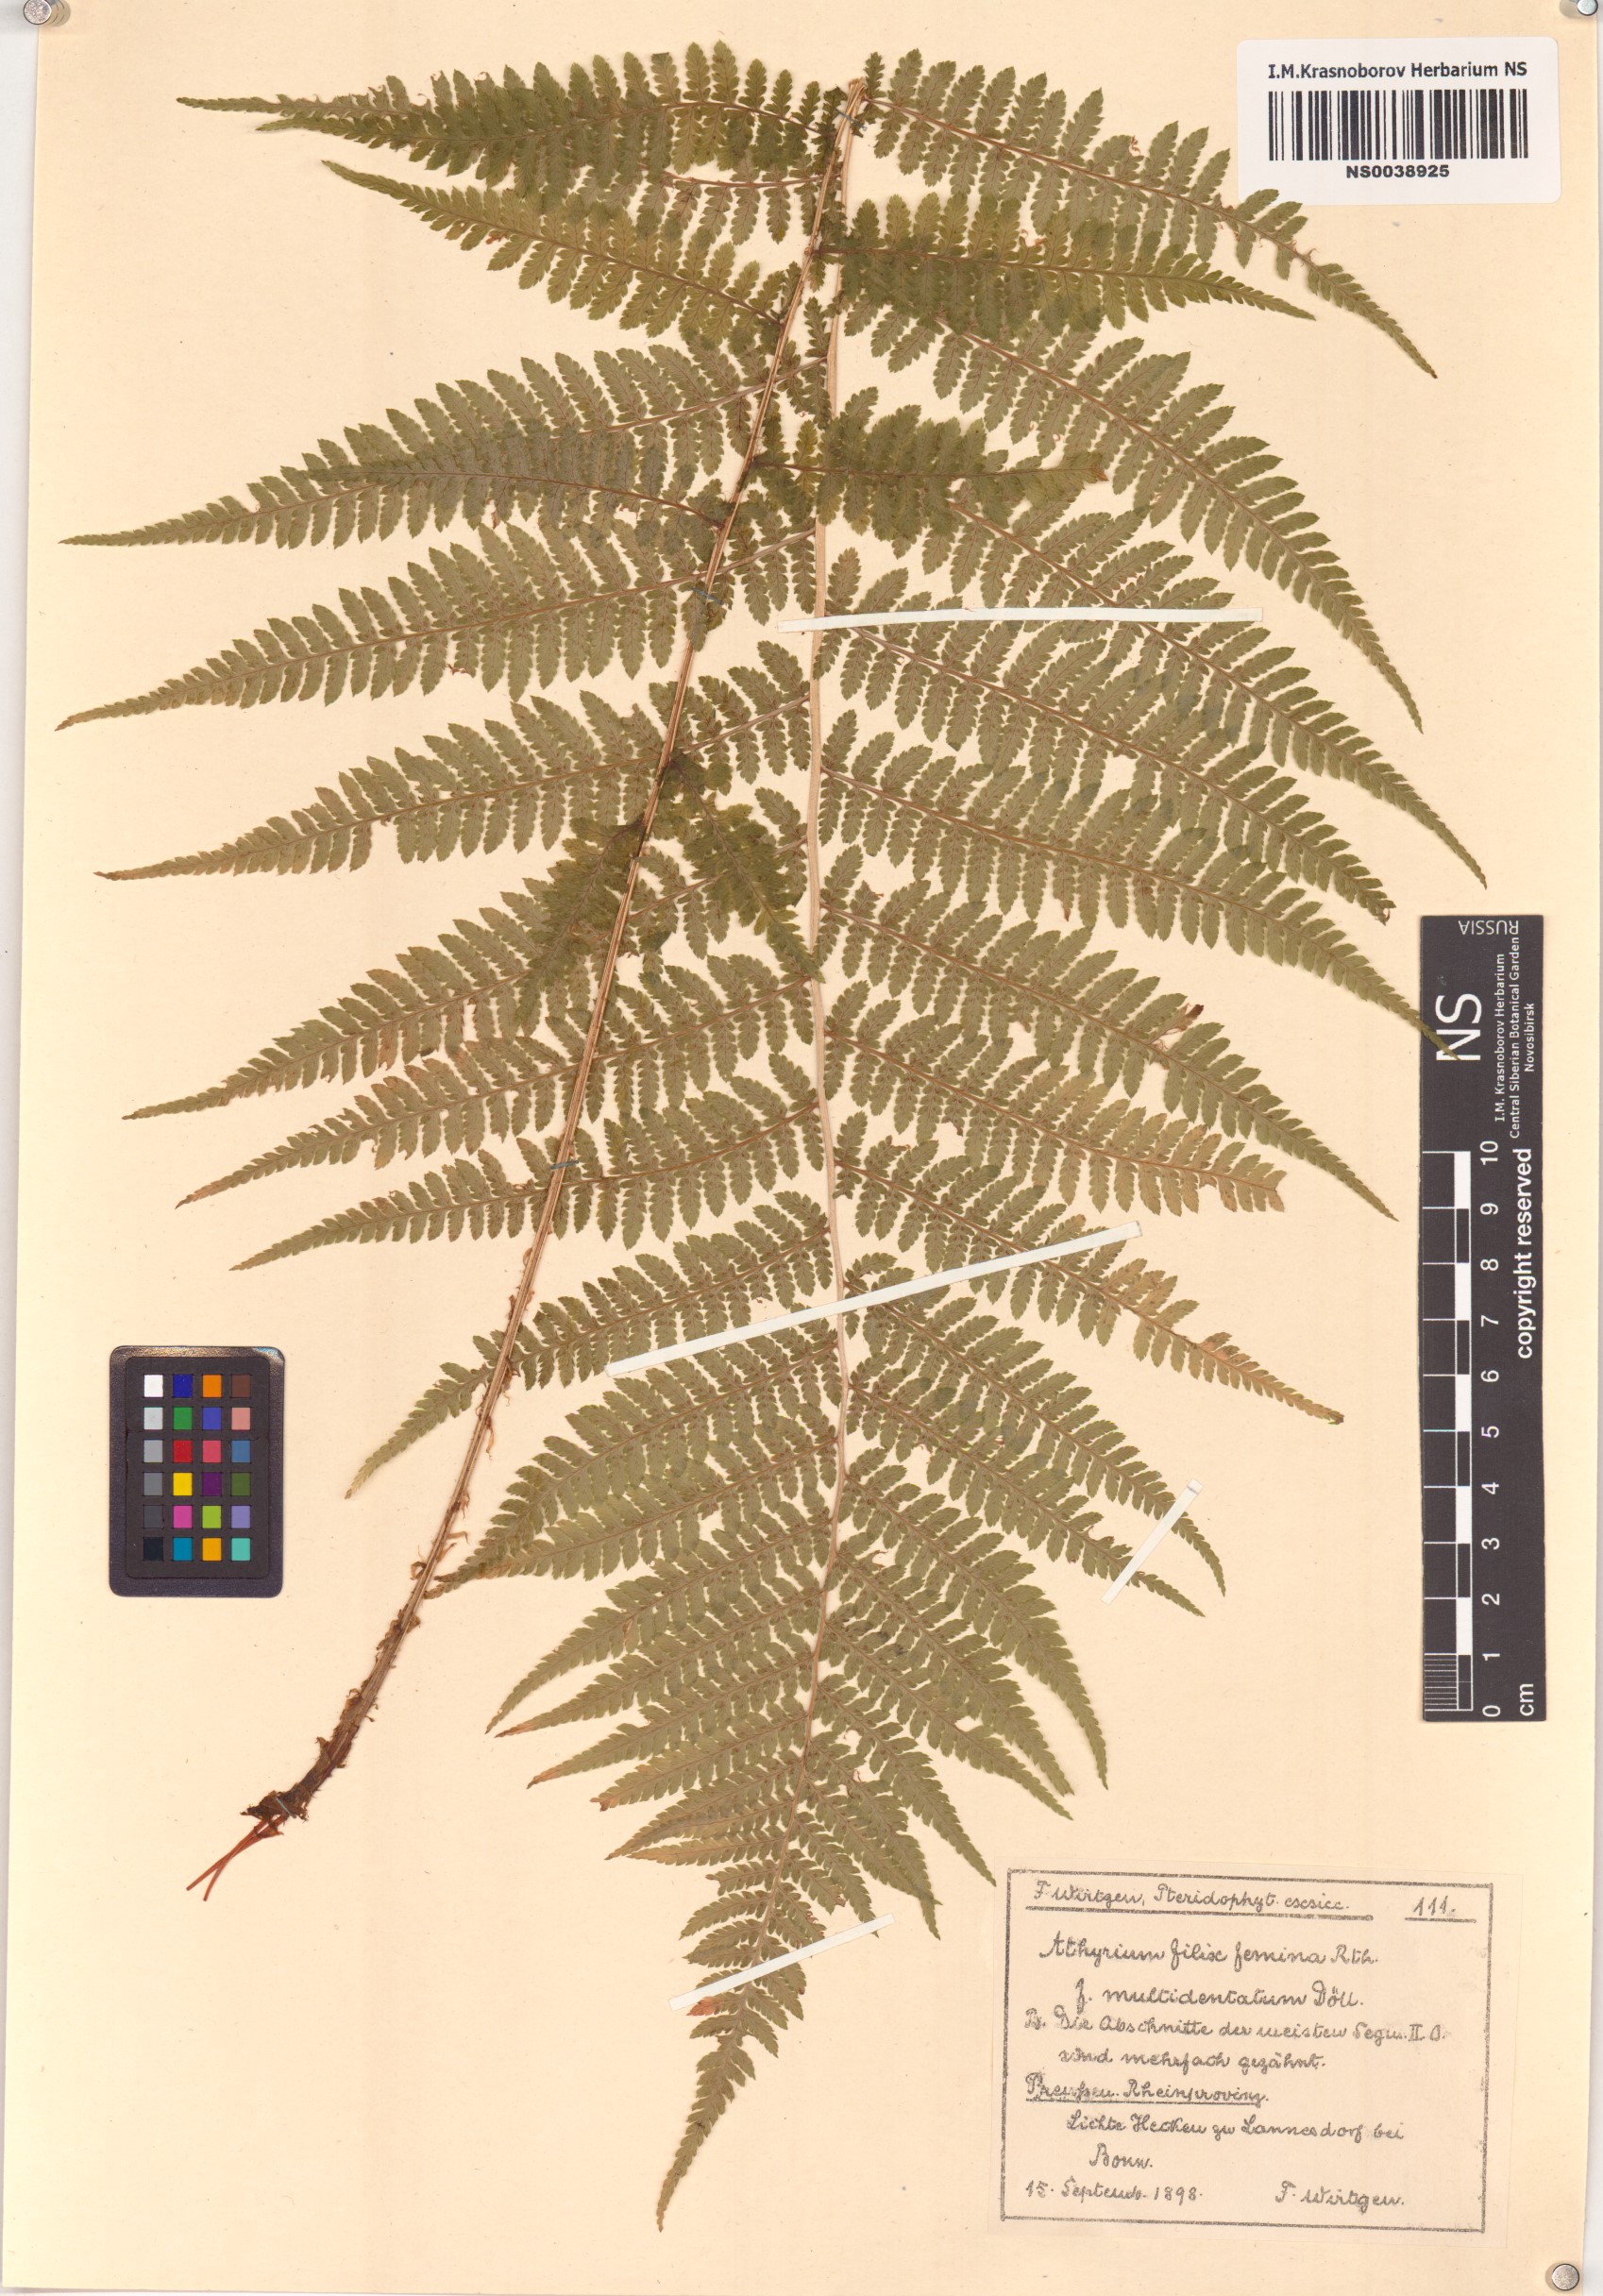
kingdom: Plantae
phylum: Tracheophyta
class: Polypodiopsida
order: Polypodiales
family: Athyriaceae
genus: Athyrium
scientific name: Athyrium filix-femina
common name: Lady fern
